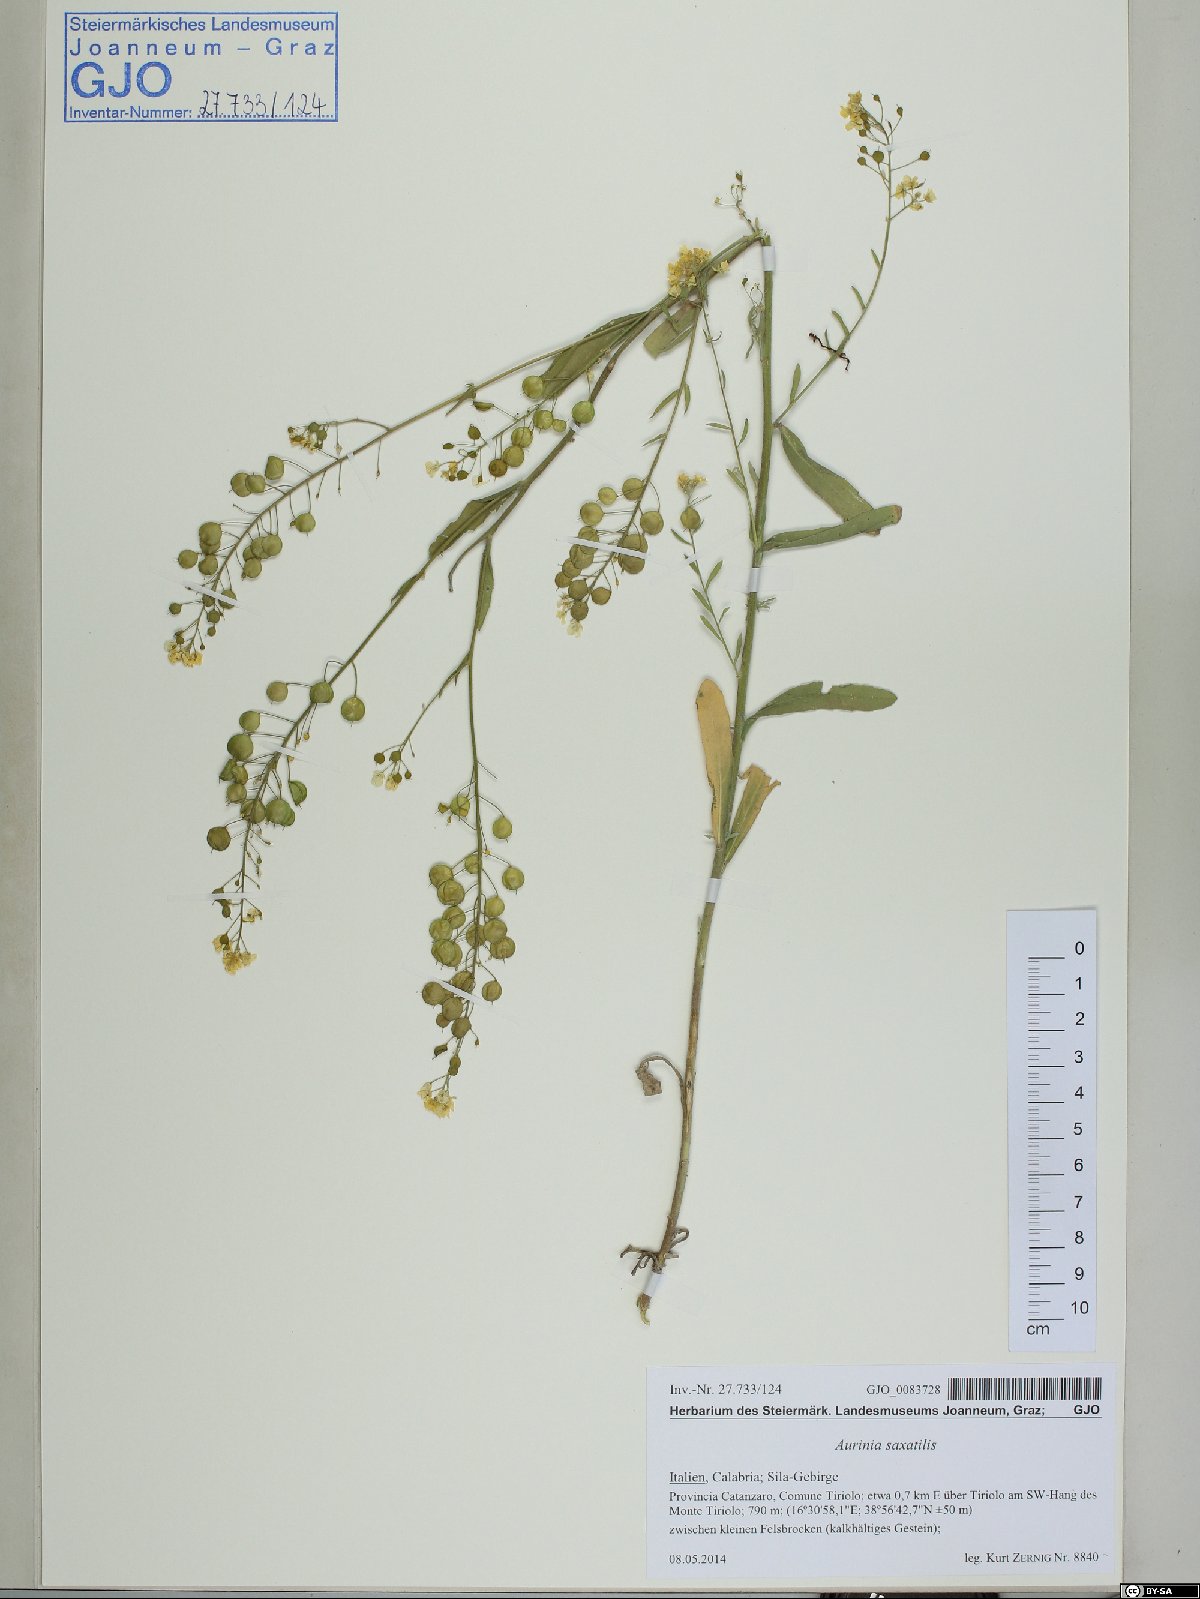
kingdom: Plantae
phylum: Tracheophyta
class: Magnoliopsida
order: Brassicales
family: Brassicaceae
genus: Aurinia
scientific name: Aurinia saxatilis
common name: Golden-tuft alyssum
